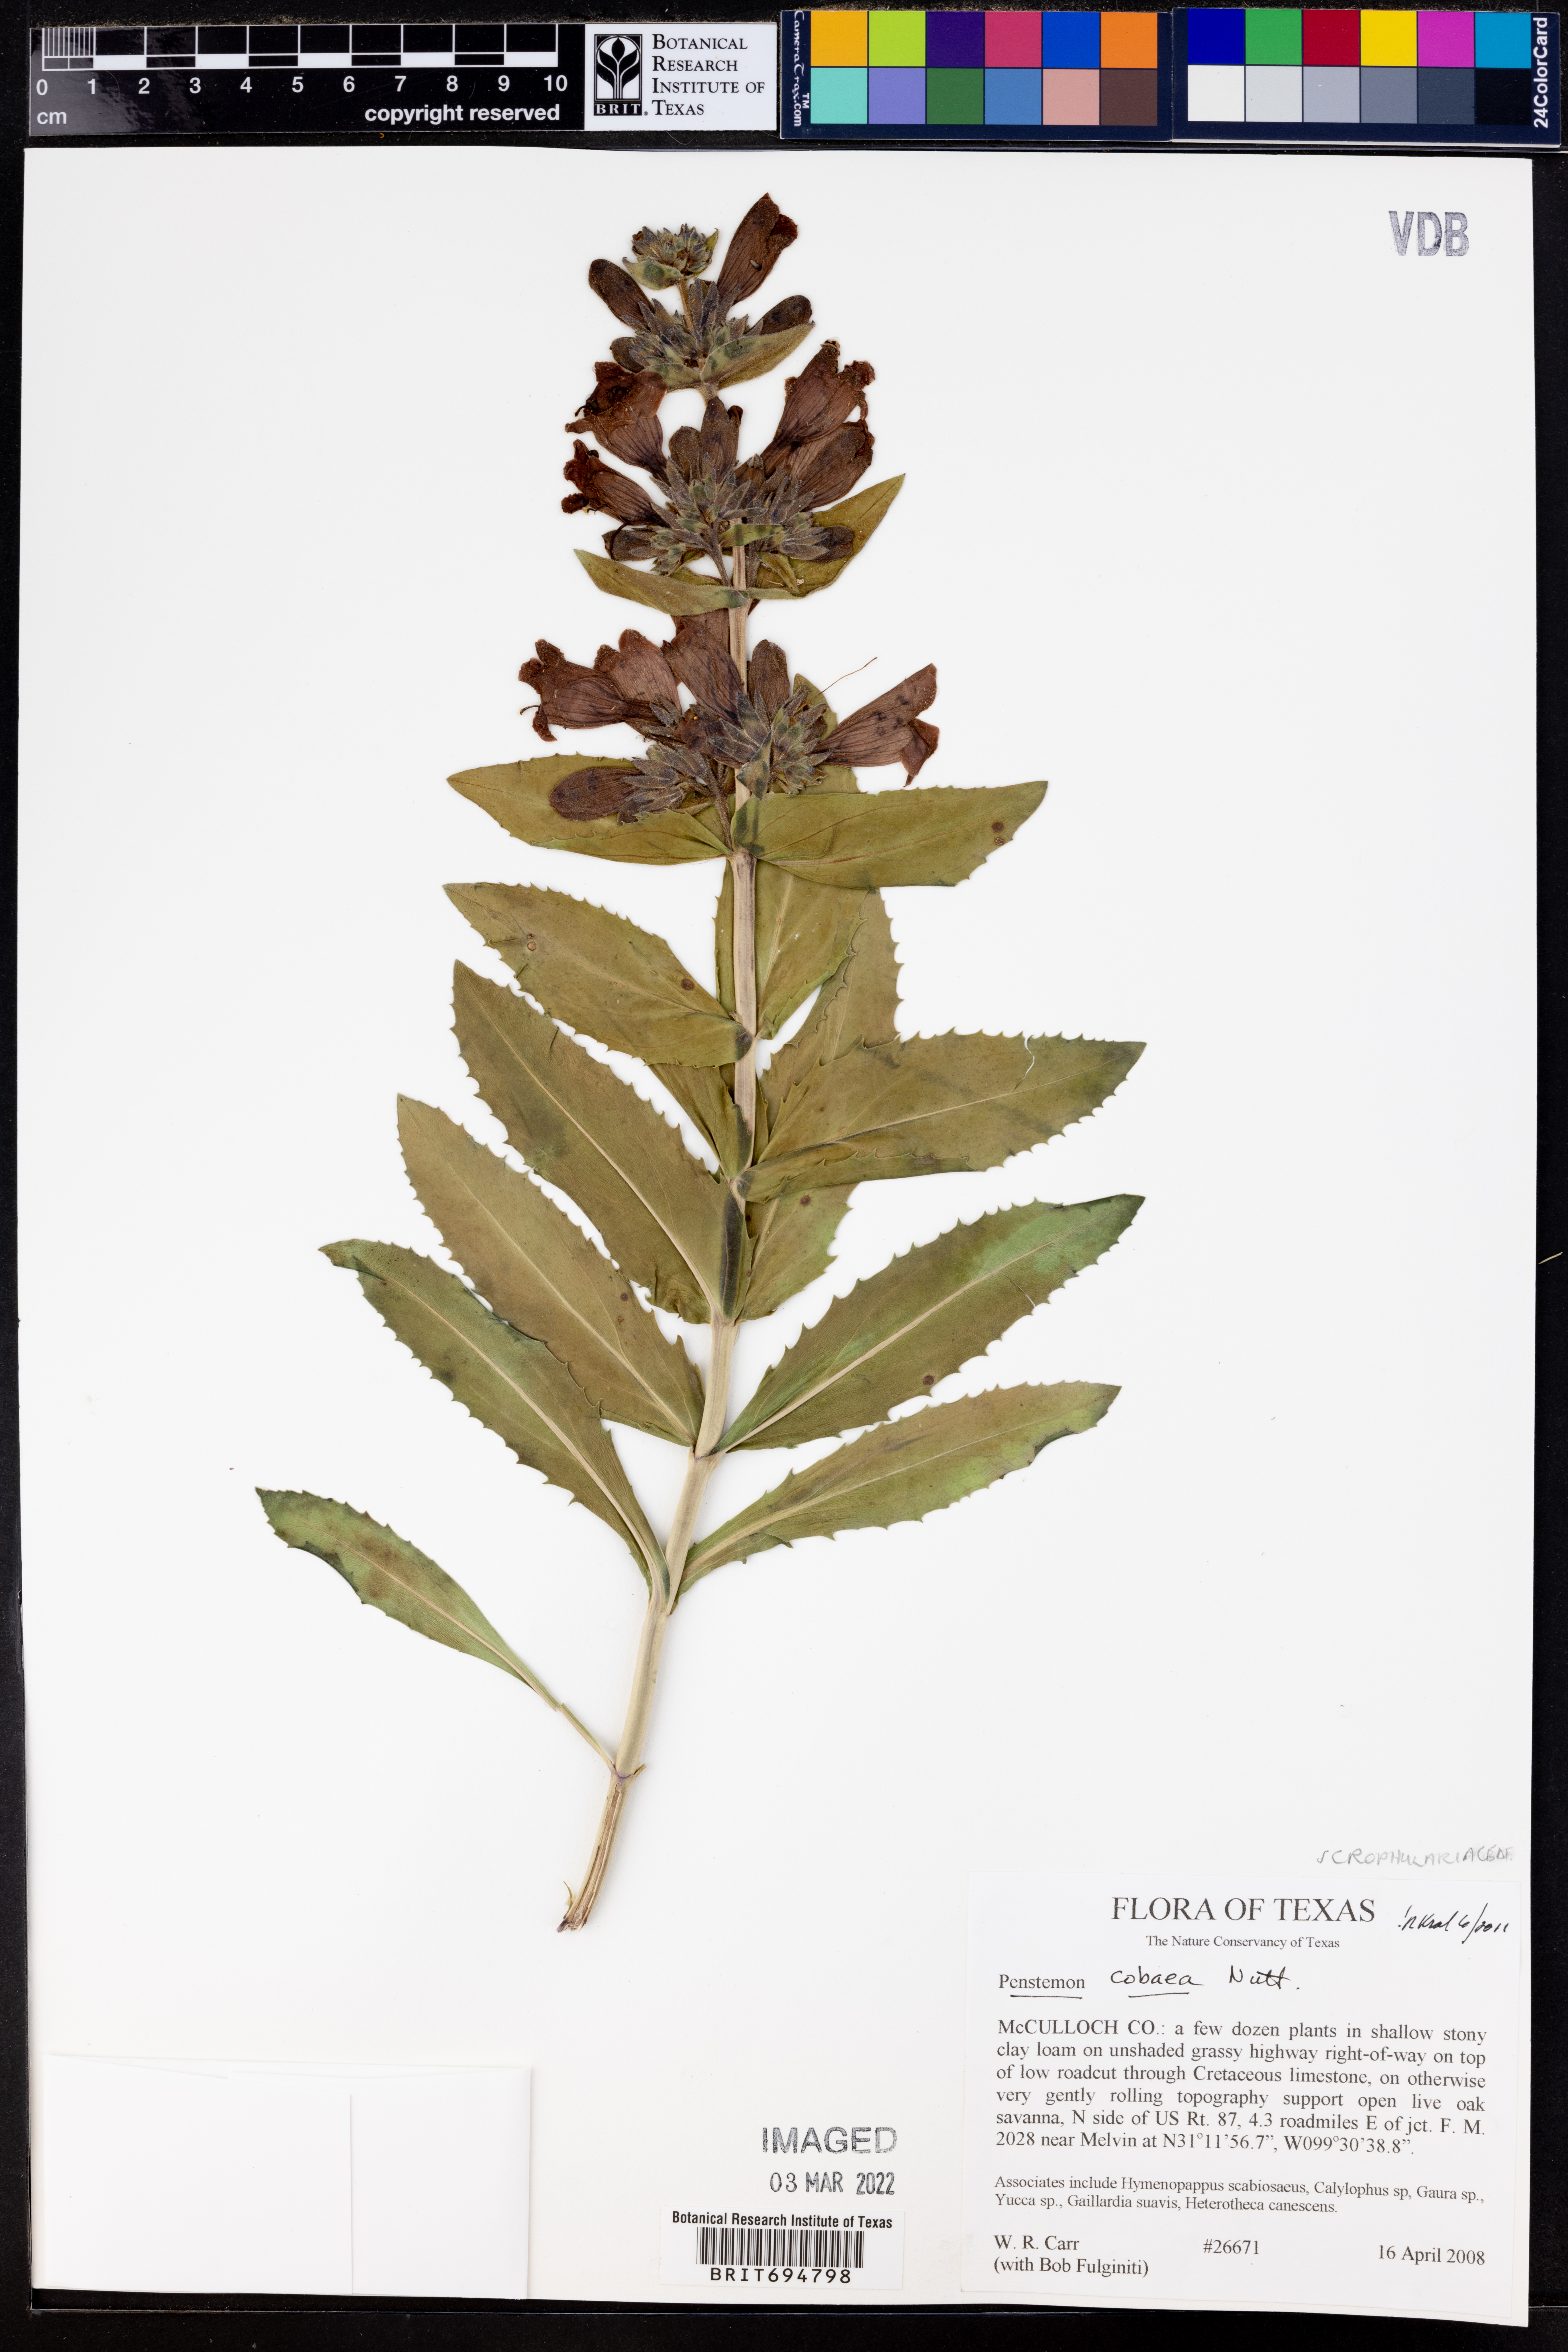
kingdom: Plantae
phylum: Tracheophyta
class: Magnoliopsida
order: Lamiales
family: Plantaginaceae
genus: Penstemon
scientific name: Penstemon cobaea
